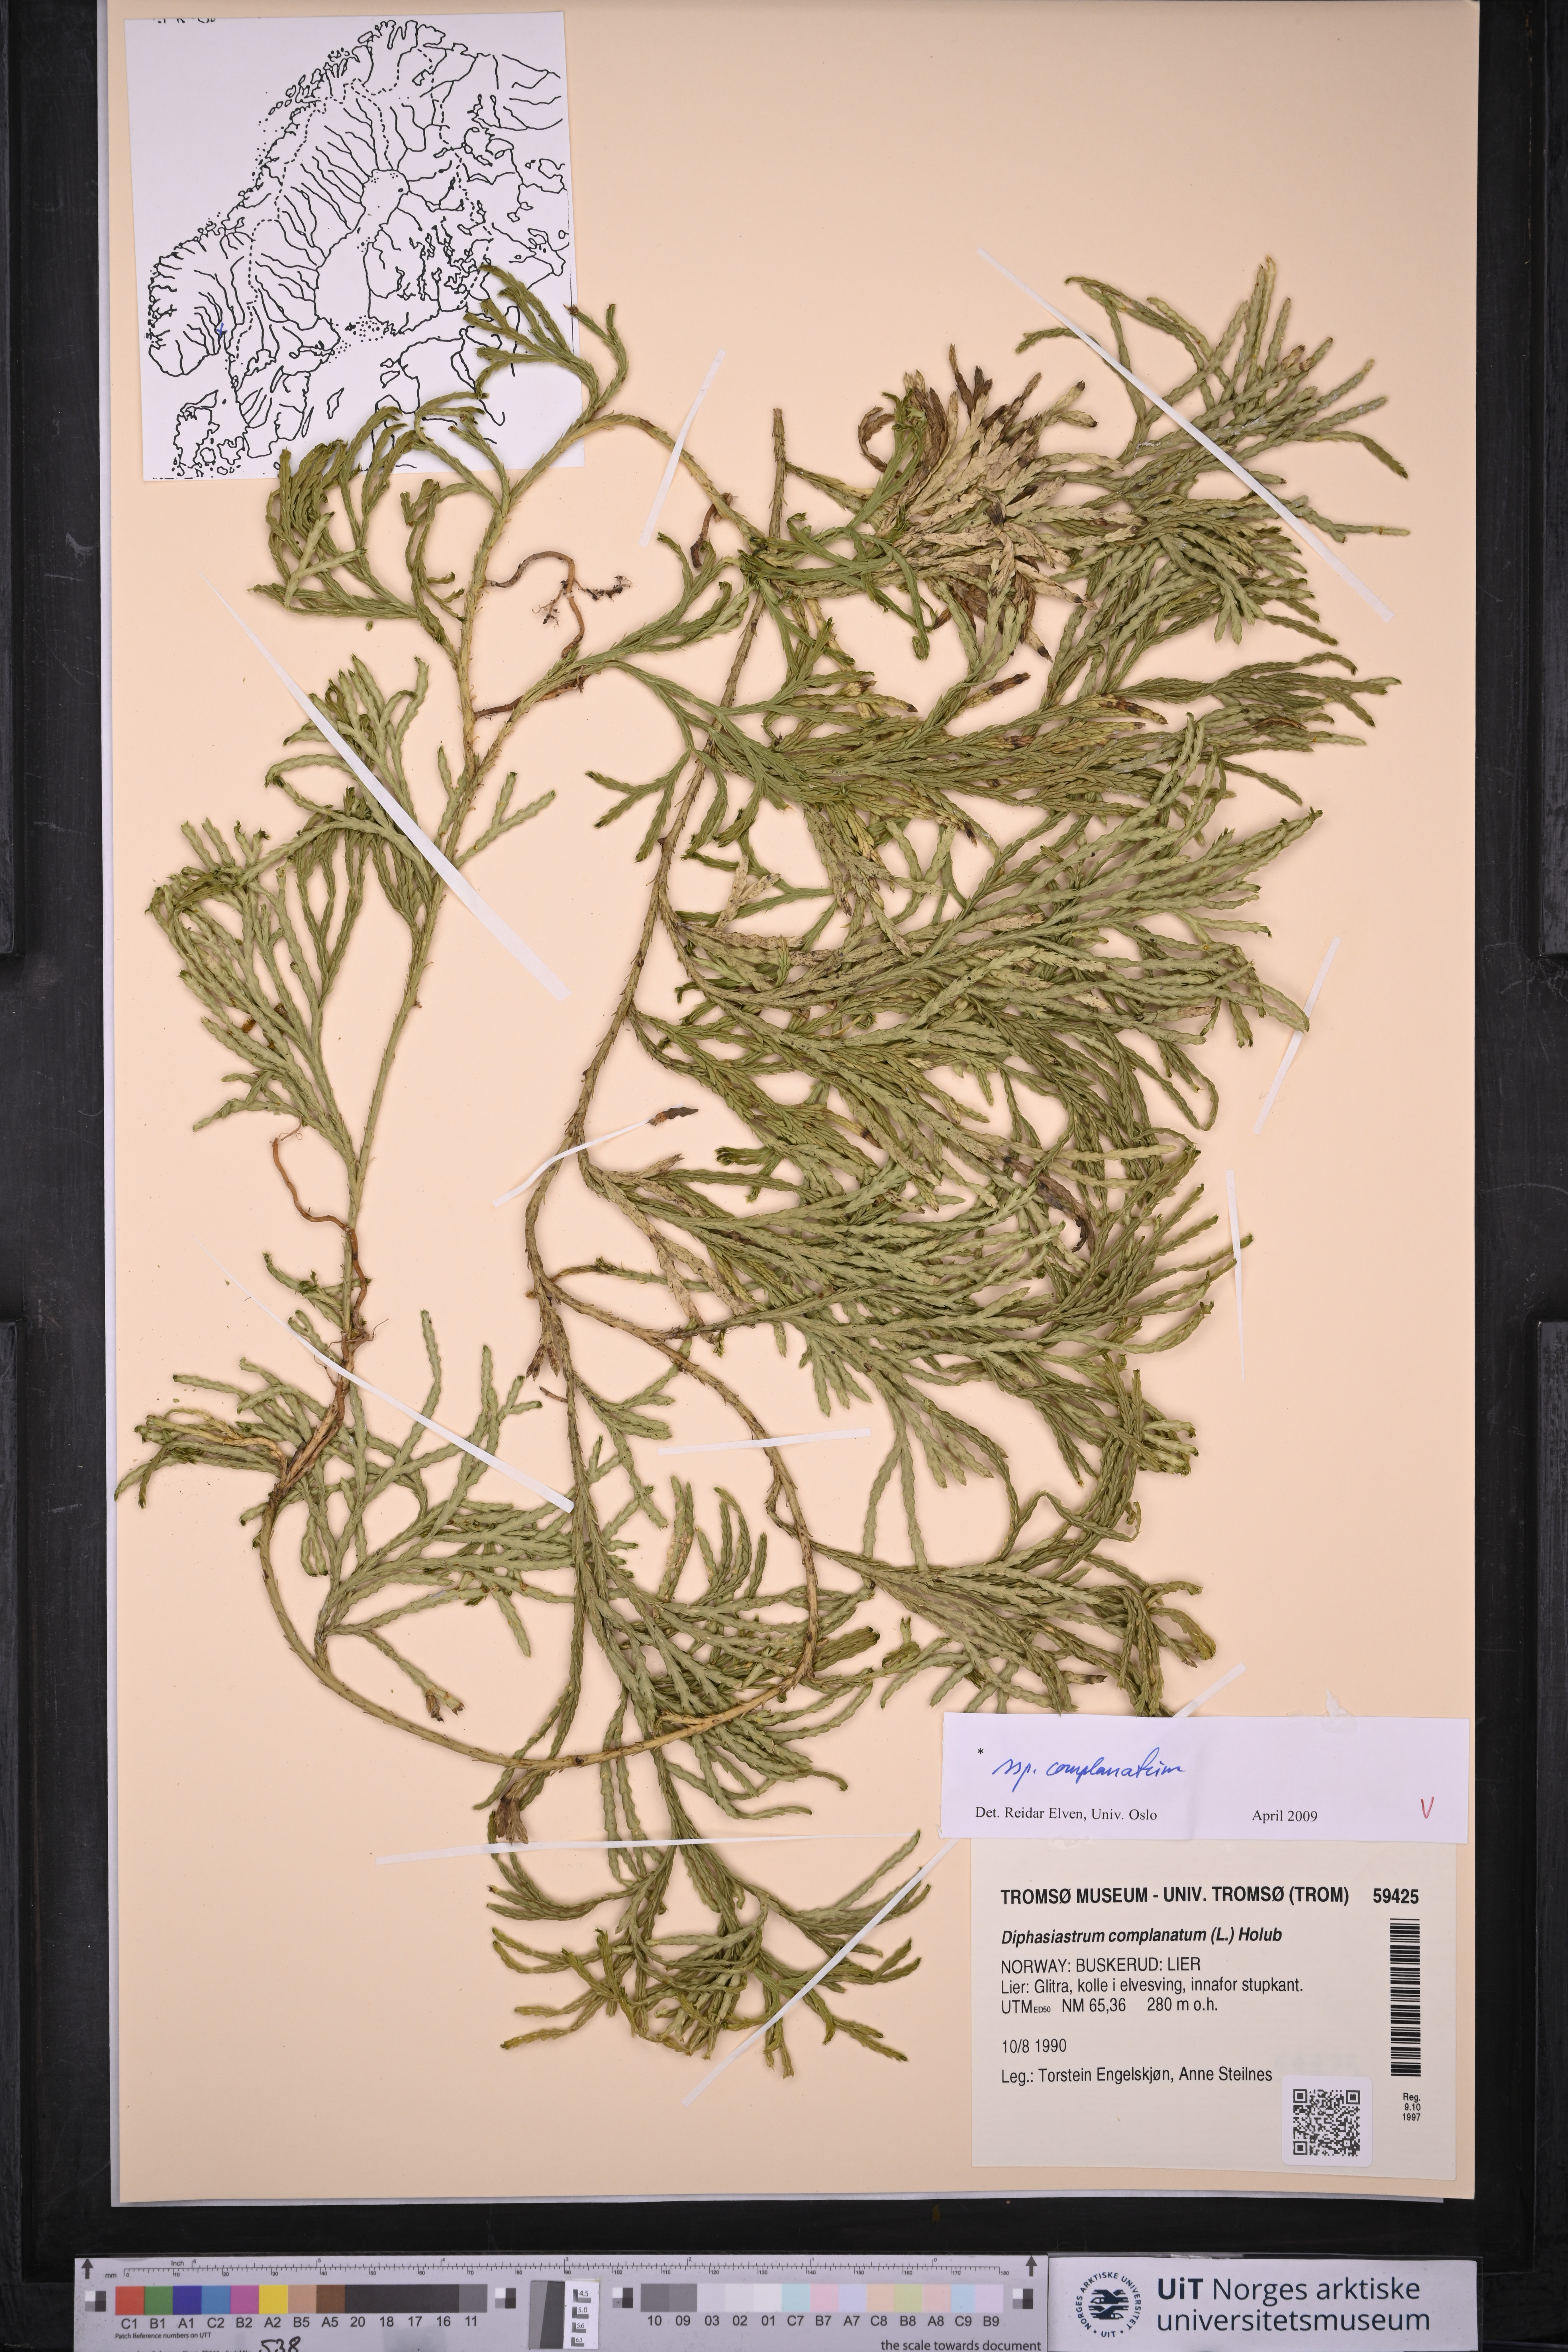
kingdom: Plantae
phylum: Tracheophyta
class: Lycopodiopsida
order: Lycopodiales
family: Lycopodiaceae
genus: Diphasiastrum
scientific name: Diphasiastrum complanatum
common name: Northern running-pine
